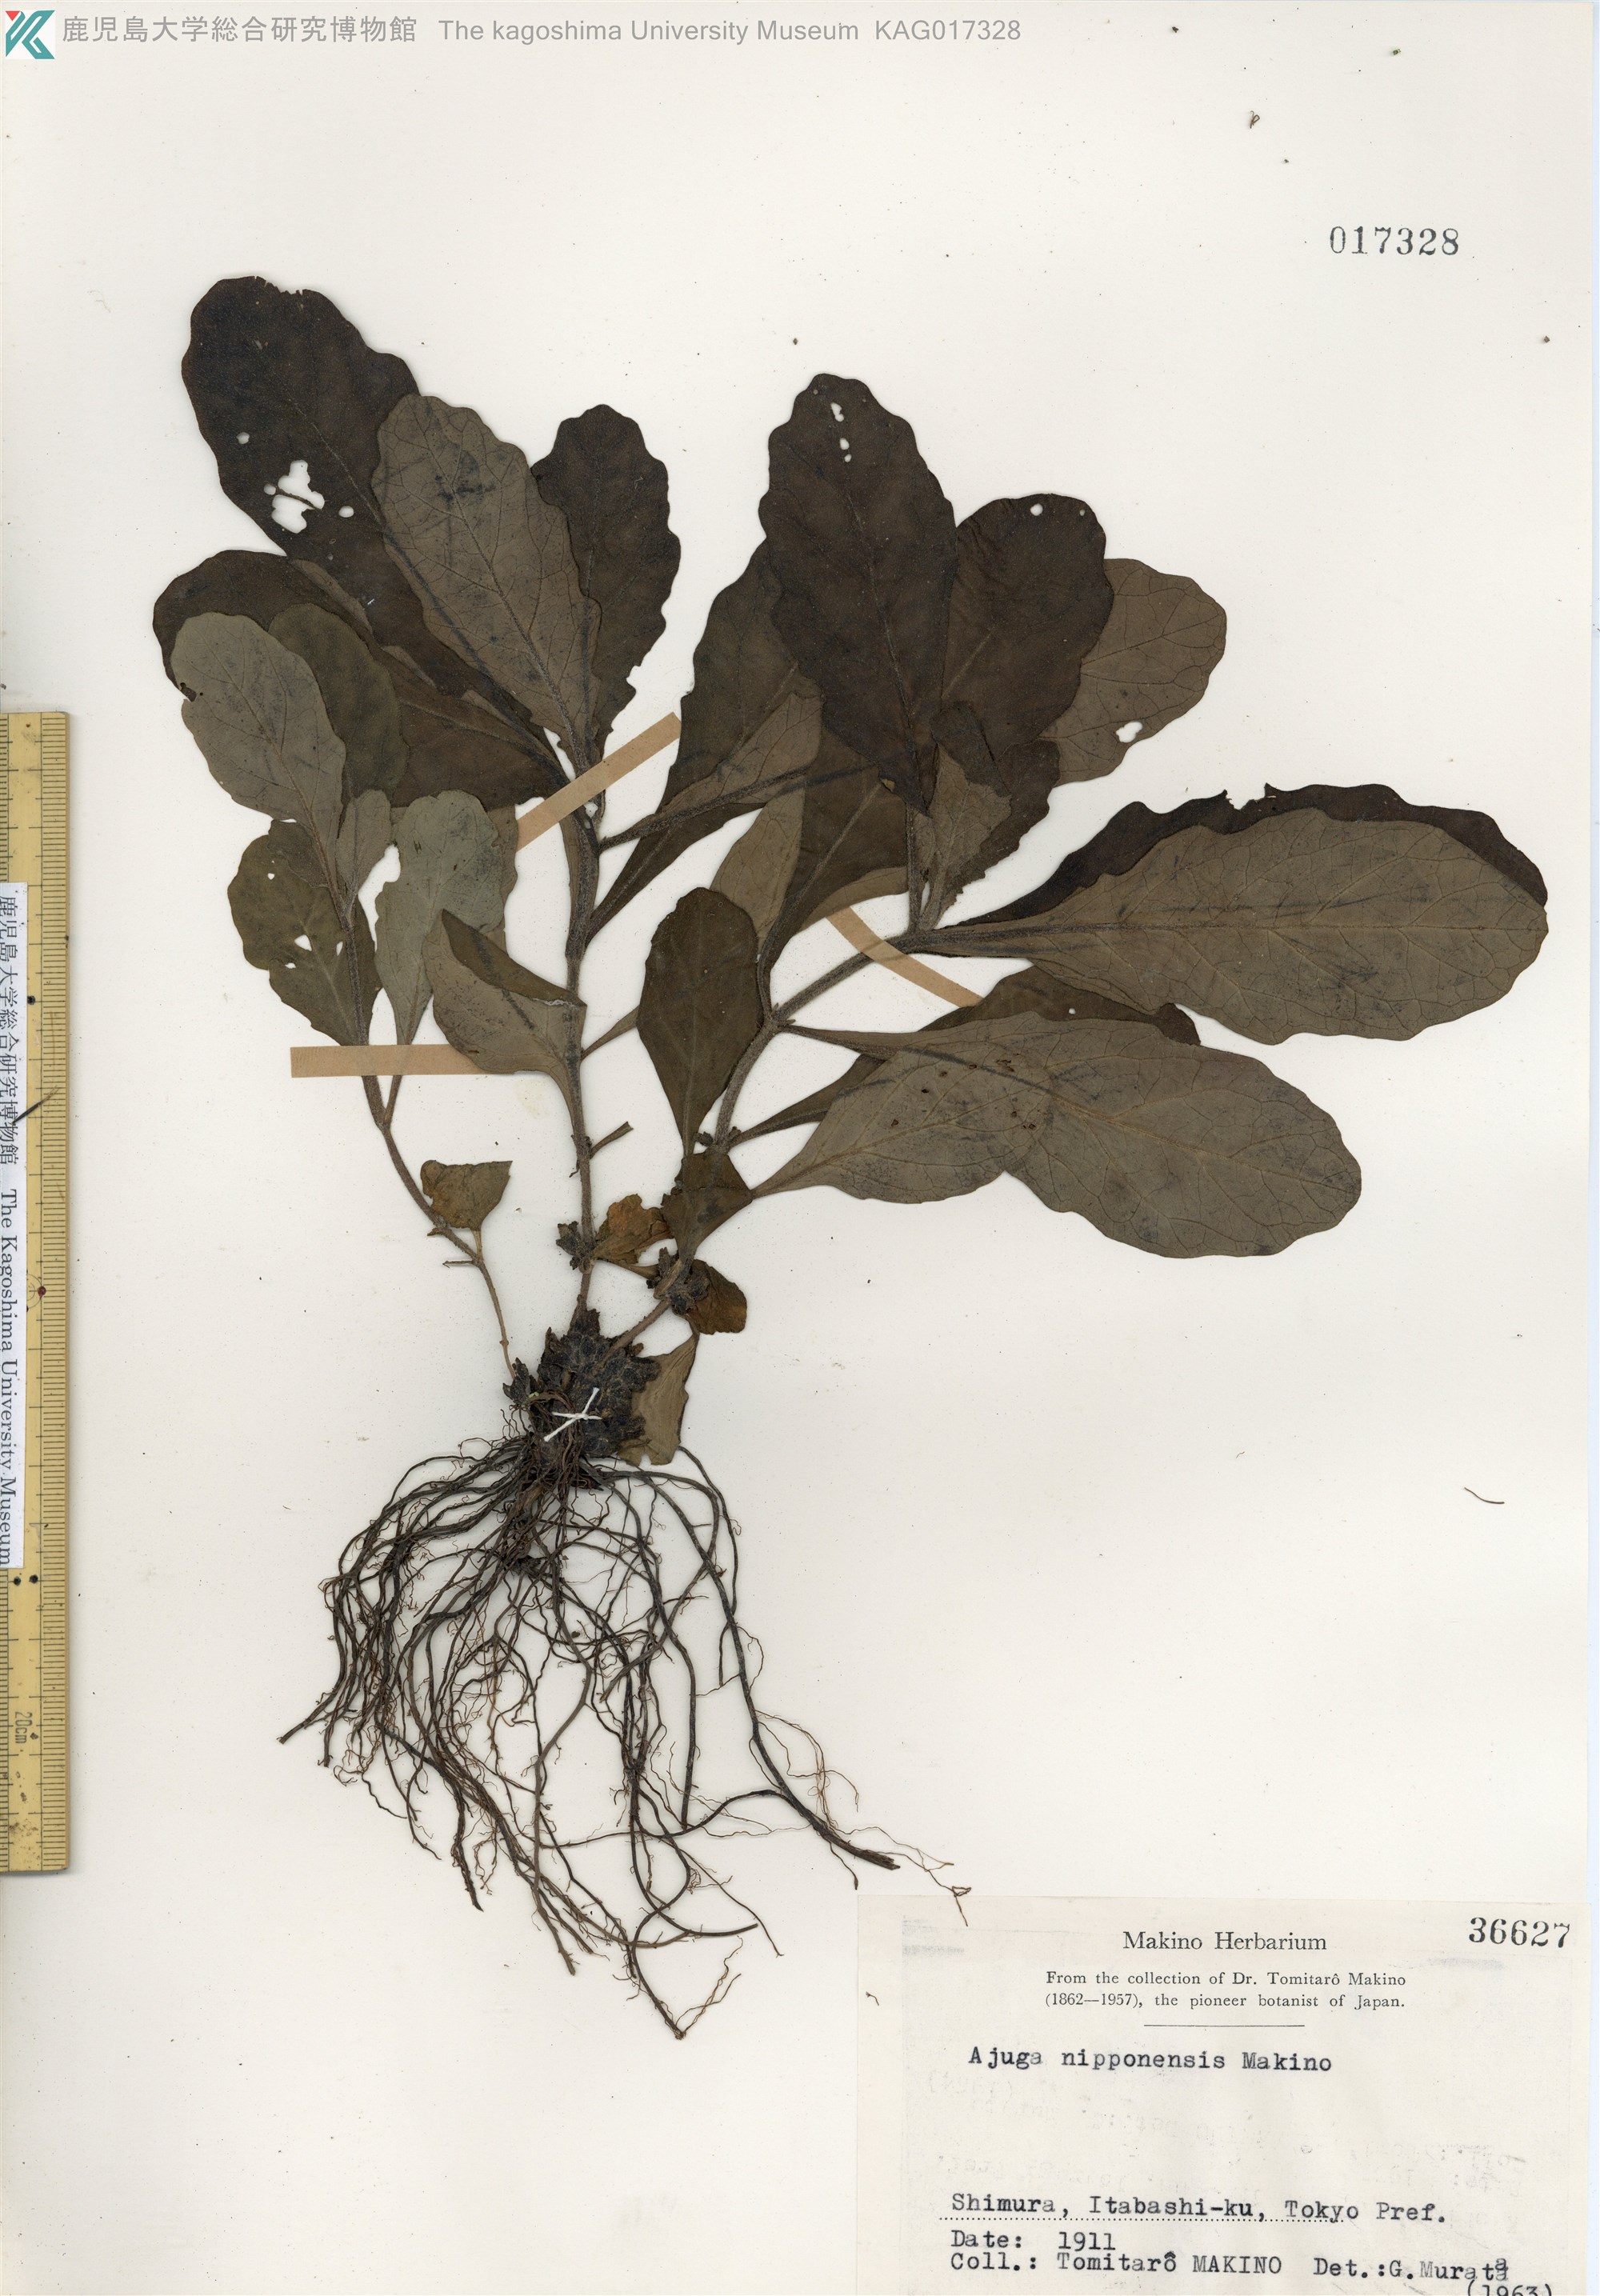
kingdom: Plantae
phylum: Tracheophyta
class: Magnoliopsida
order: Lamiales
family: Lamiaceae
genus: Ajuga
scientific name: Ajuga nipponensis
